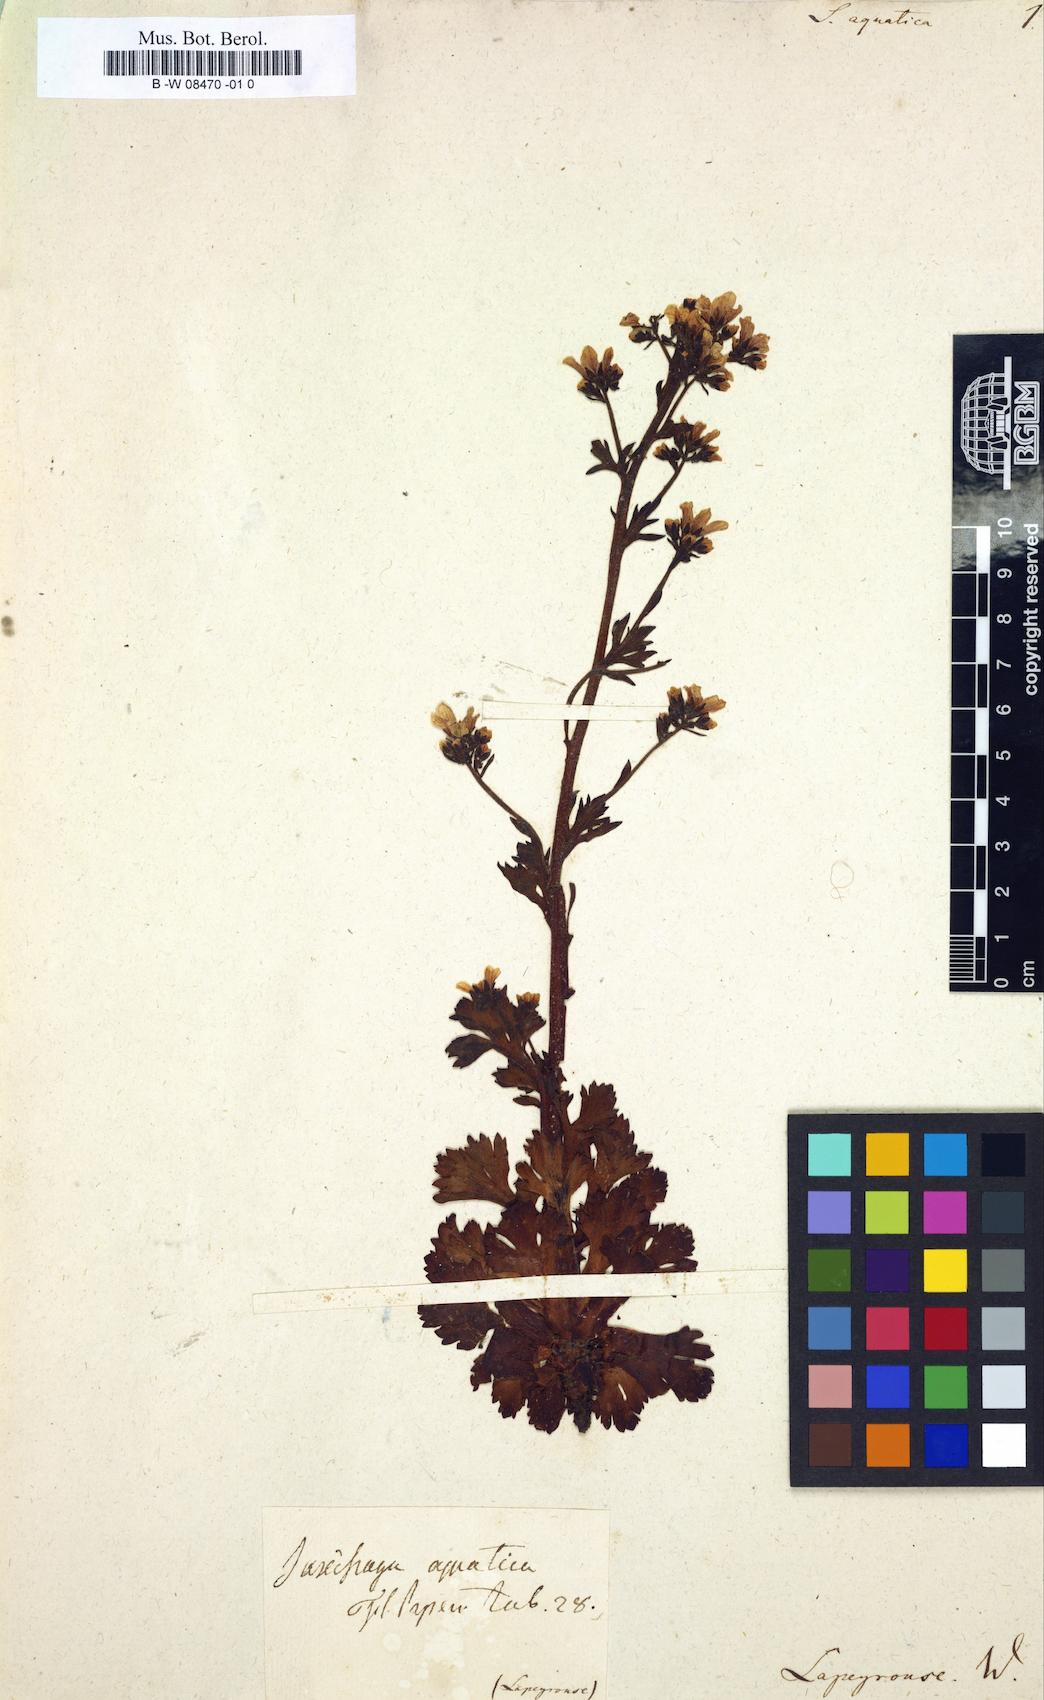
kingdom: Plantae
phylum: Tracheophyta
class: Magnoliopsida
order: Saxifragales
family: Saxifragaceae
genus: Saxifraga
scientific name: Saxifraga aquatica
